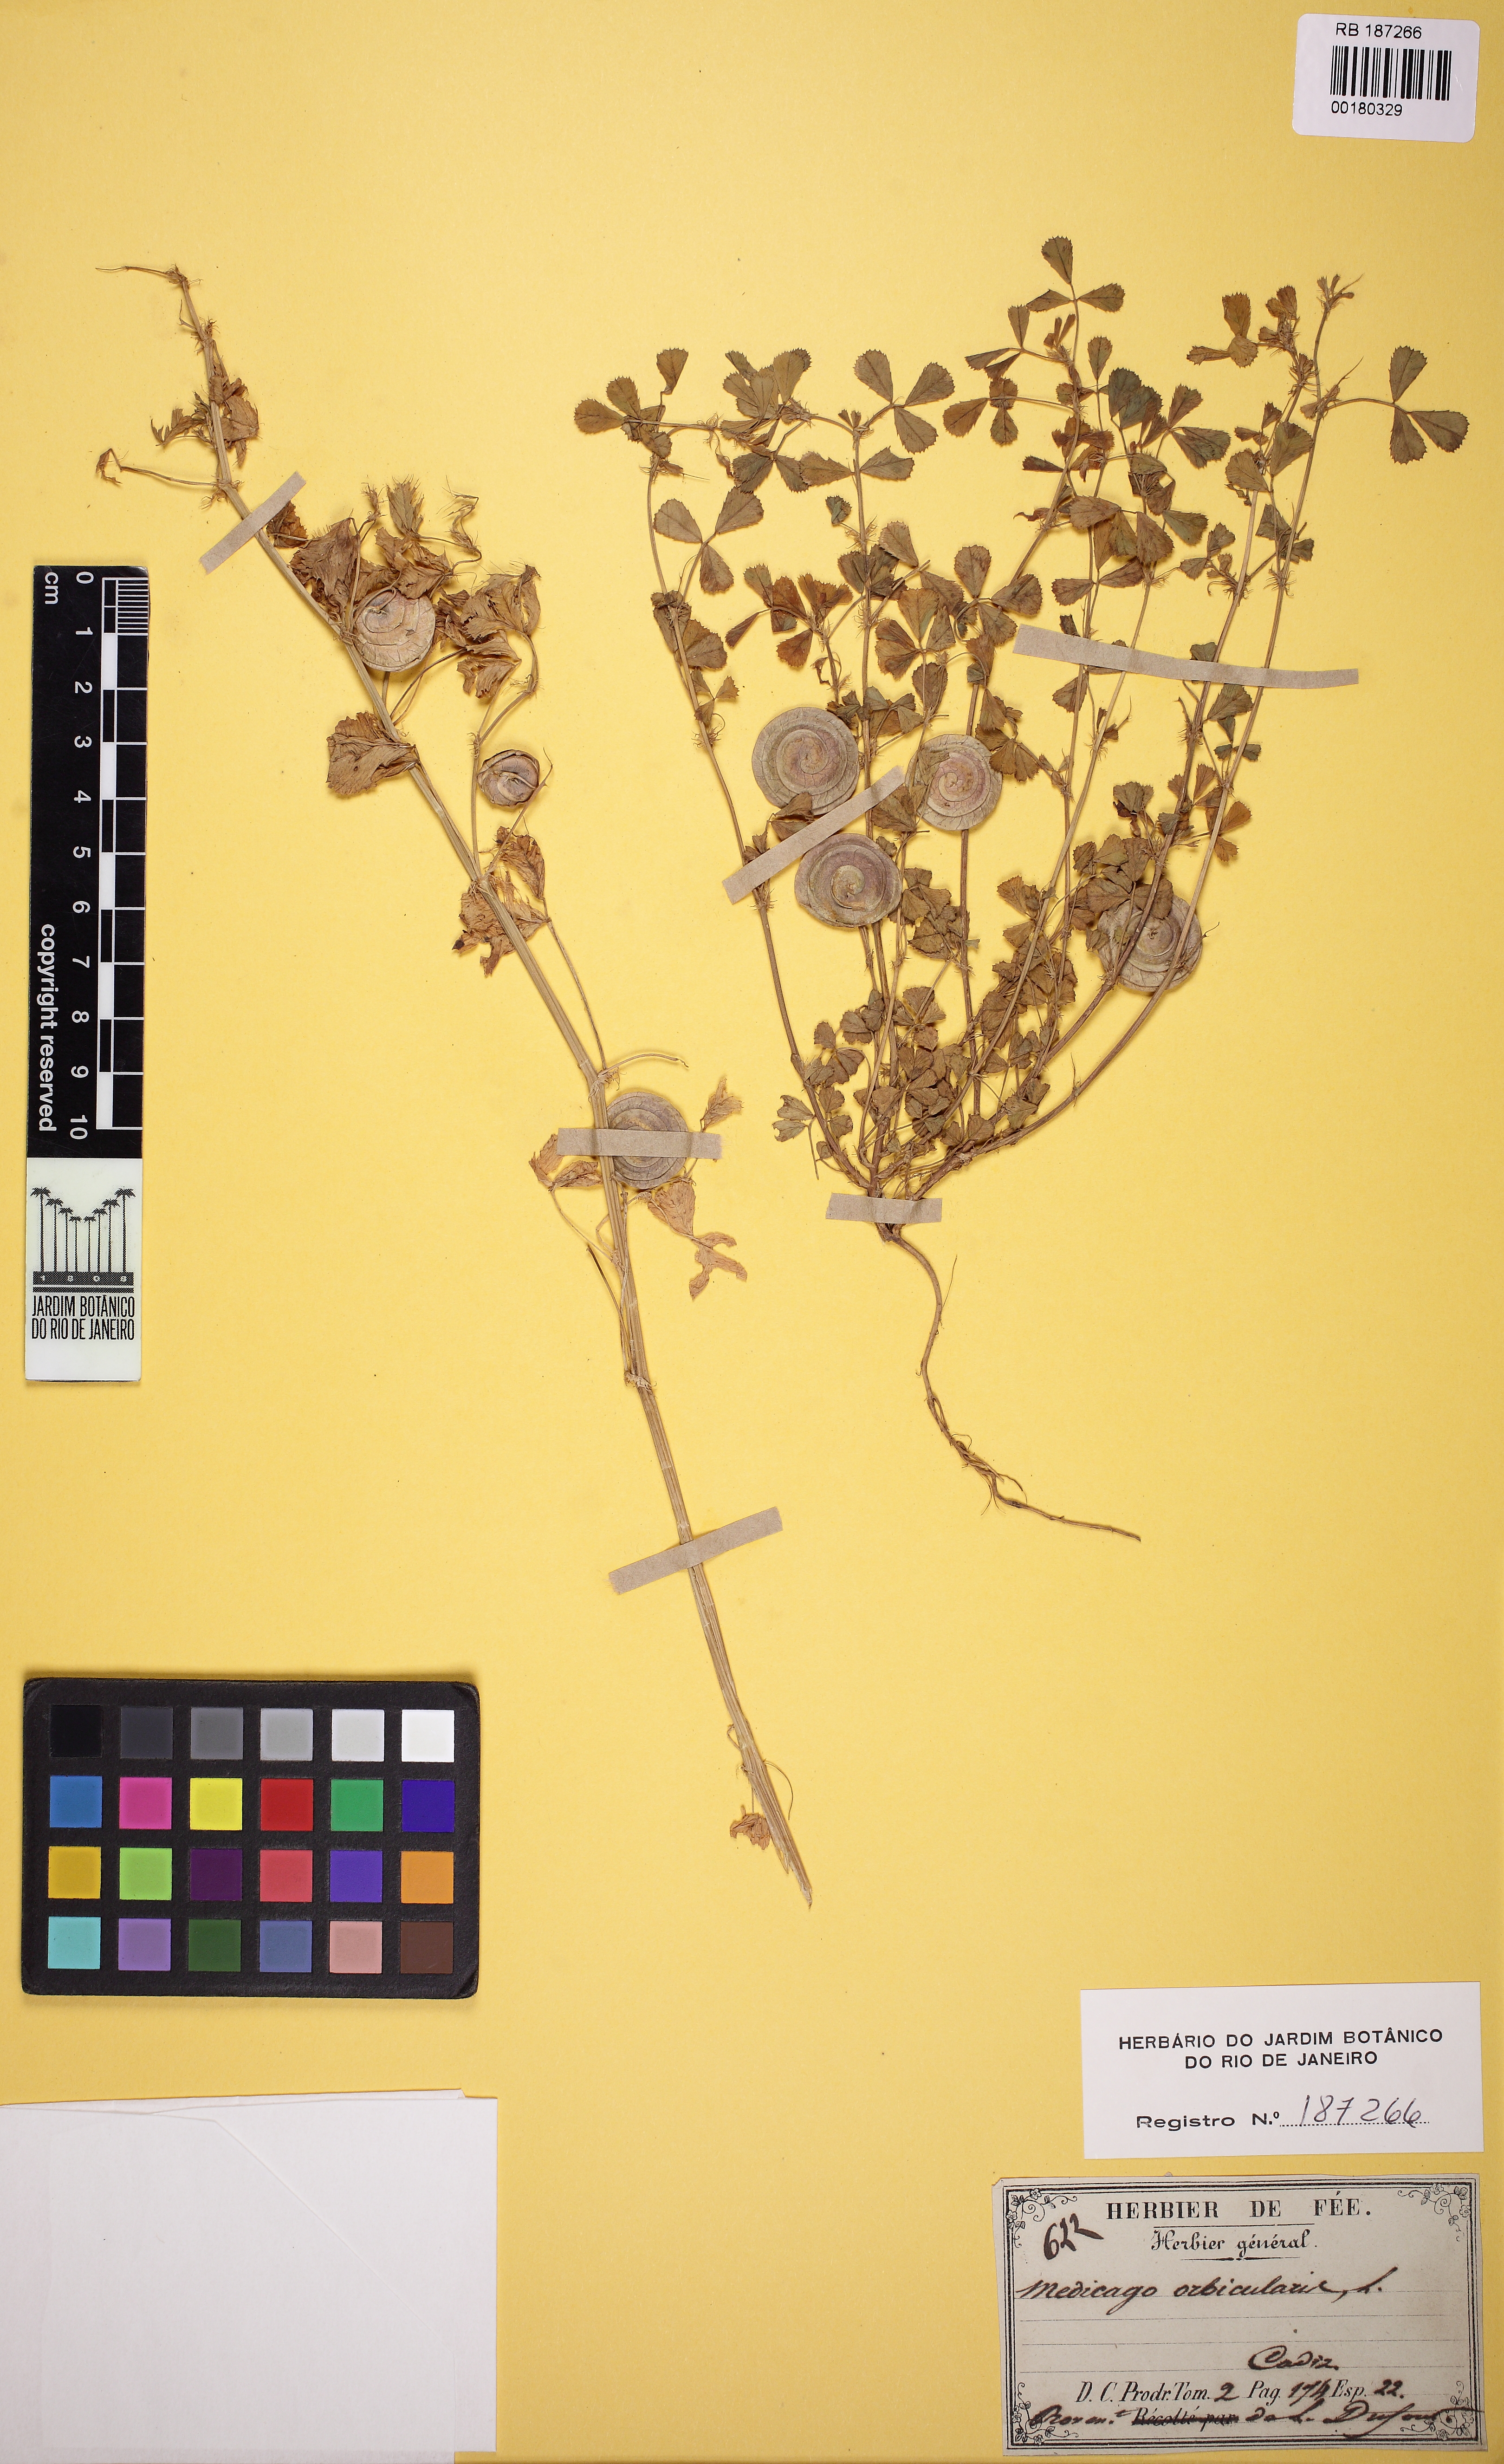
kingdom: Plantae
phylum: Tracheophyta
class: Magnoliopsida
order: Fabales
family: Fabaceae
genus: Medicago
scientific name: Medicago orbicularis
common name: Button medick
